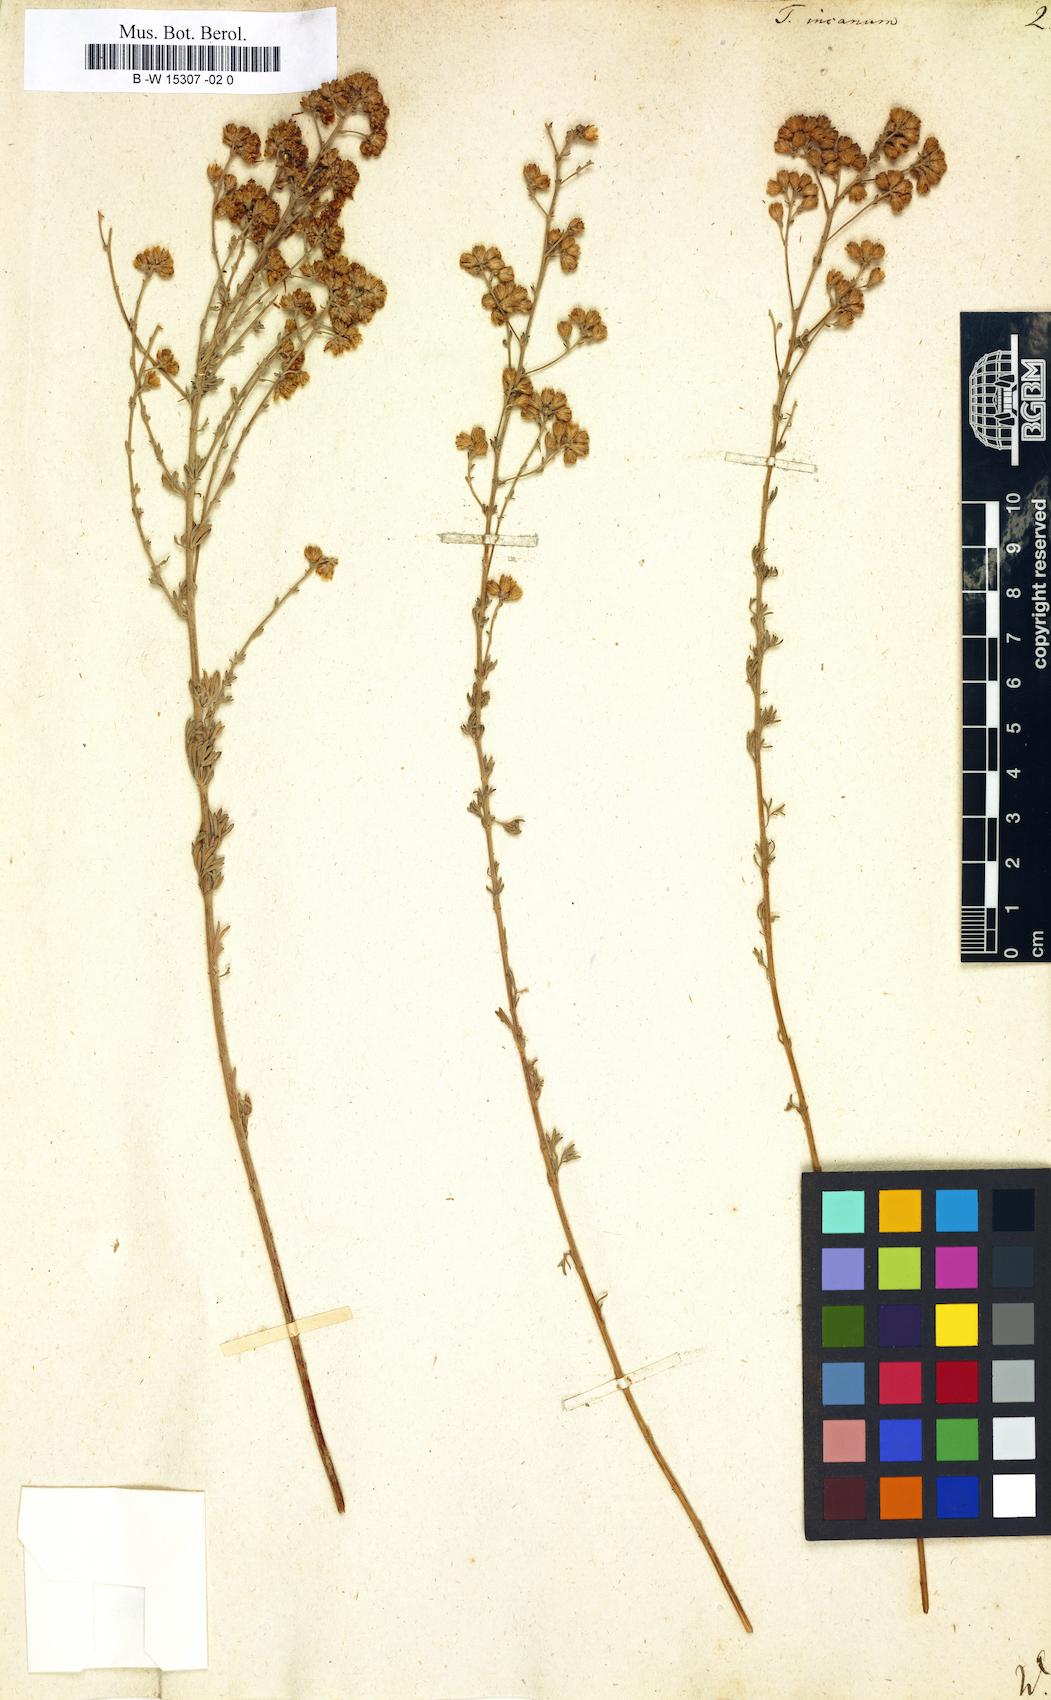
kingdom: Plantae
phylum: Tracheophyta
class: Magnoliopsida
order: Asterales
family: Asteraceae
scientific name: Asteraceae
